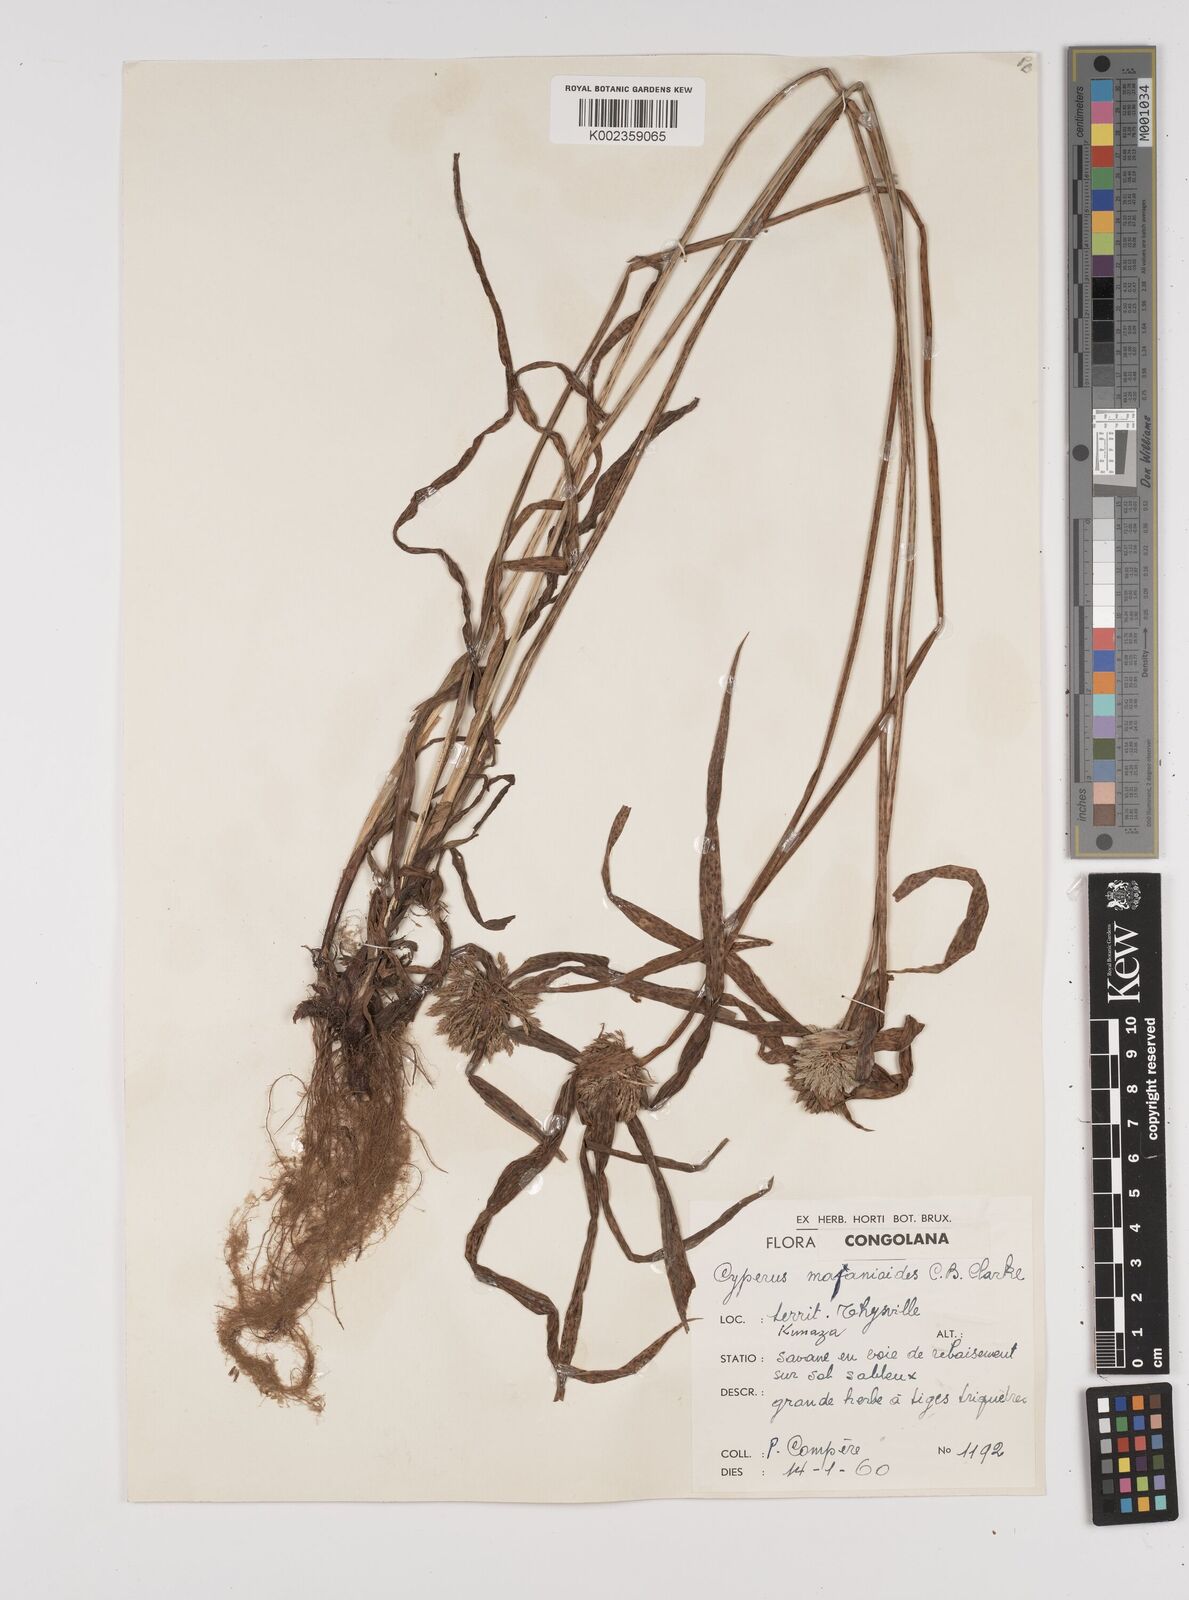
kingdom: Plantae
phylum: Tracheophyta
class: Liliopsida
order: Poales
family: Cyperaceae
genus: Cyperus
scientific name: Cyperus mapanioides
